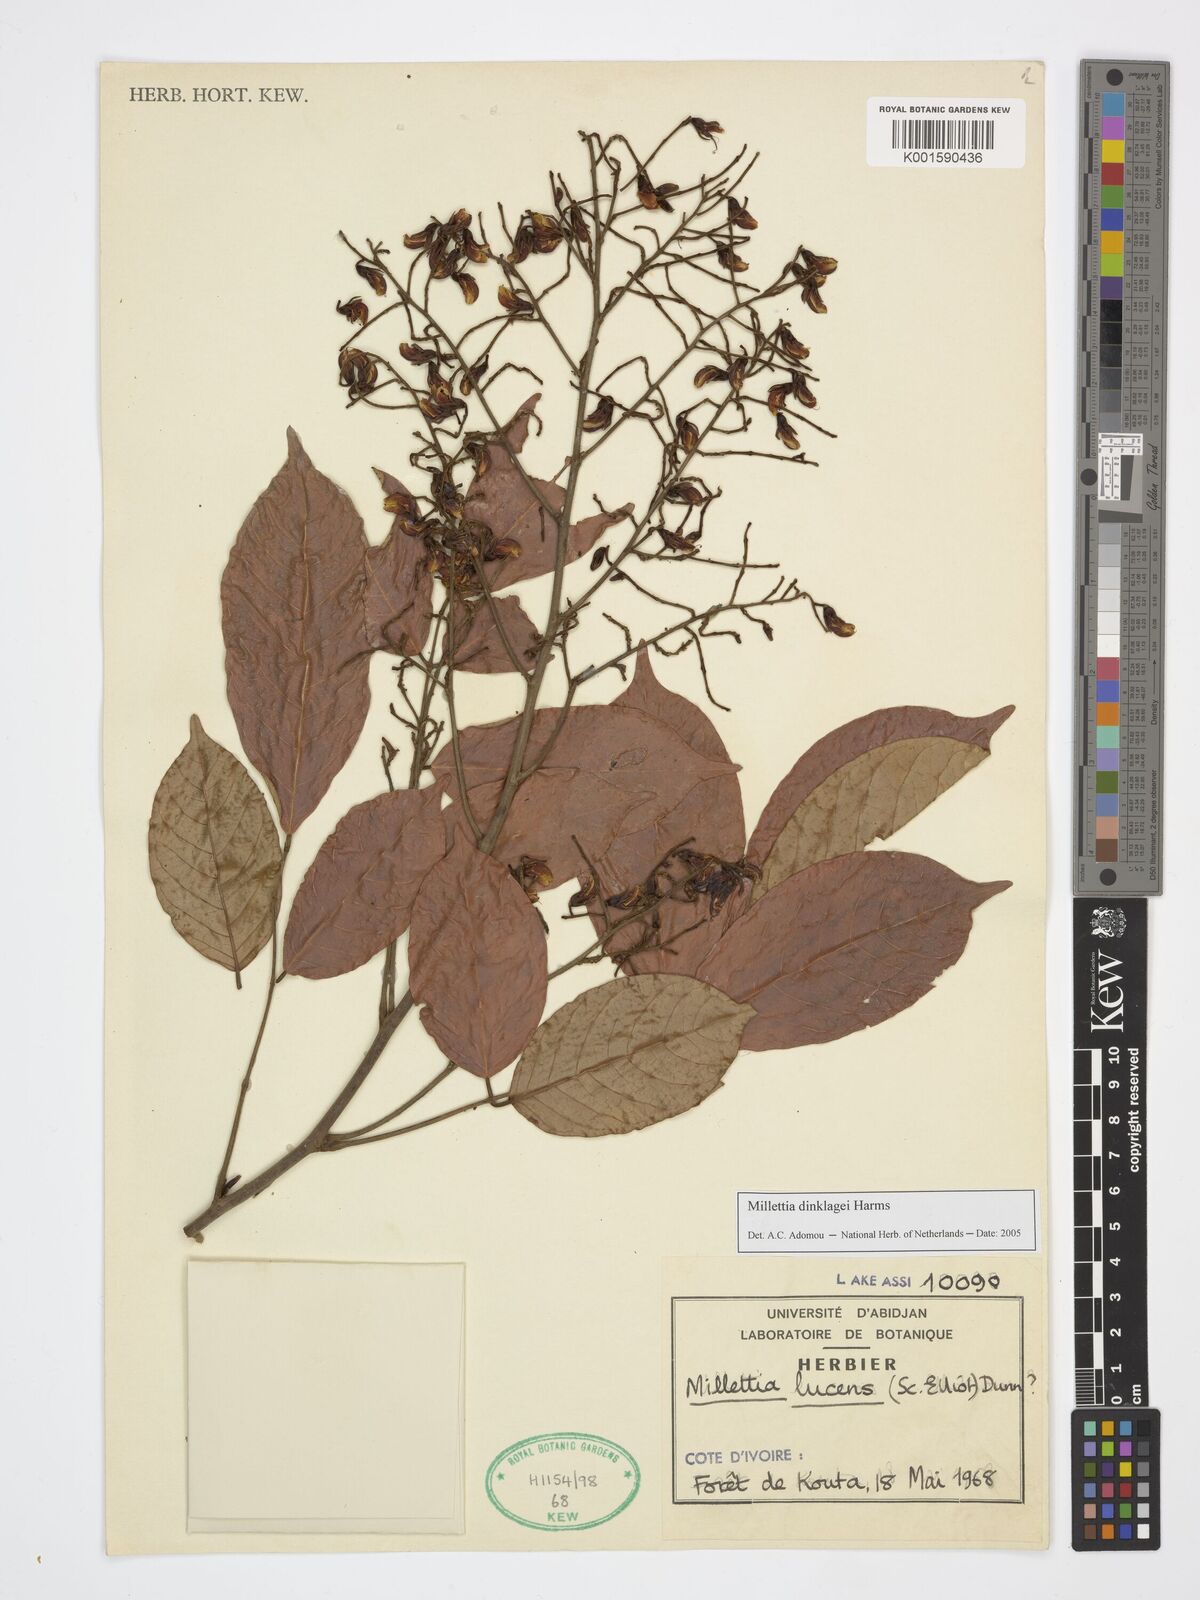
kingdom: Plantae
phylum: Tracheophyta
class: Magnoliopsida
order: Fabales
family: Fabaceae
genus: Millettia
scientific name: Millettia dinklagei
